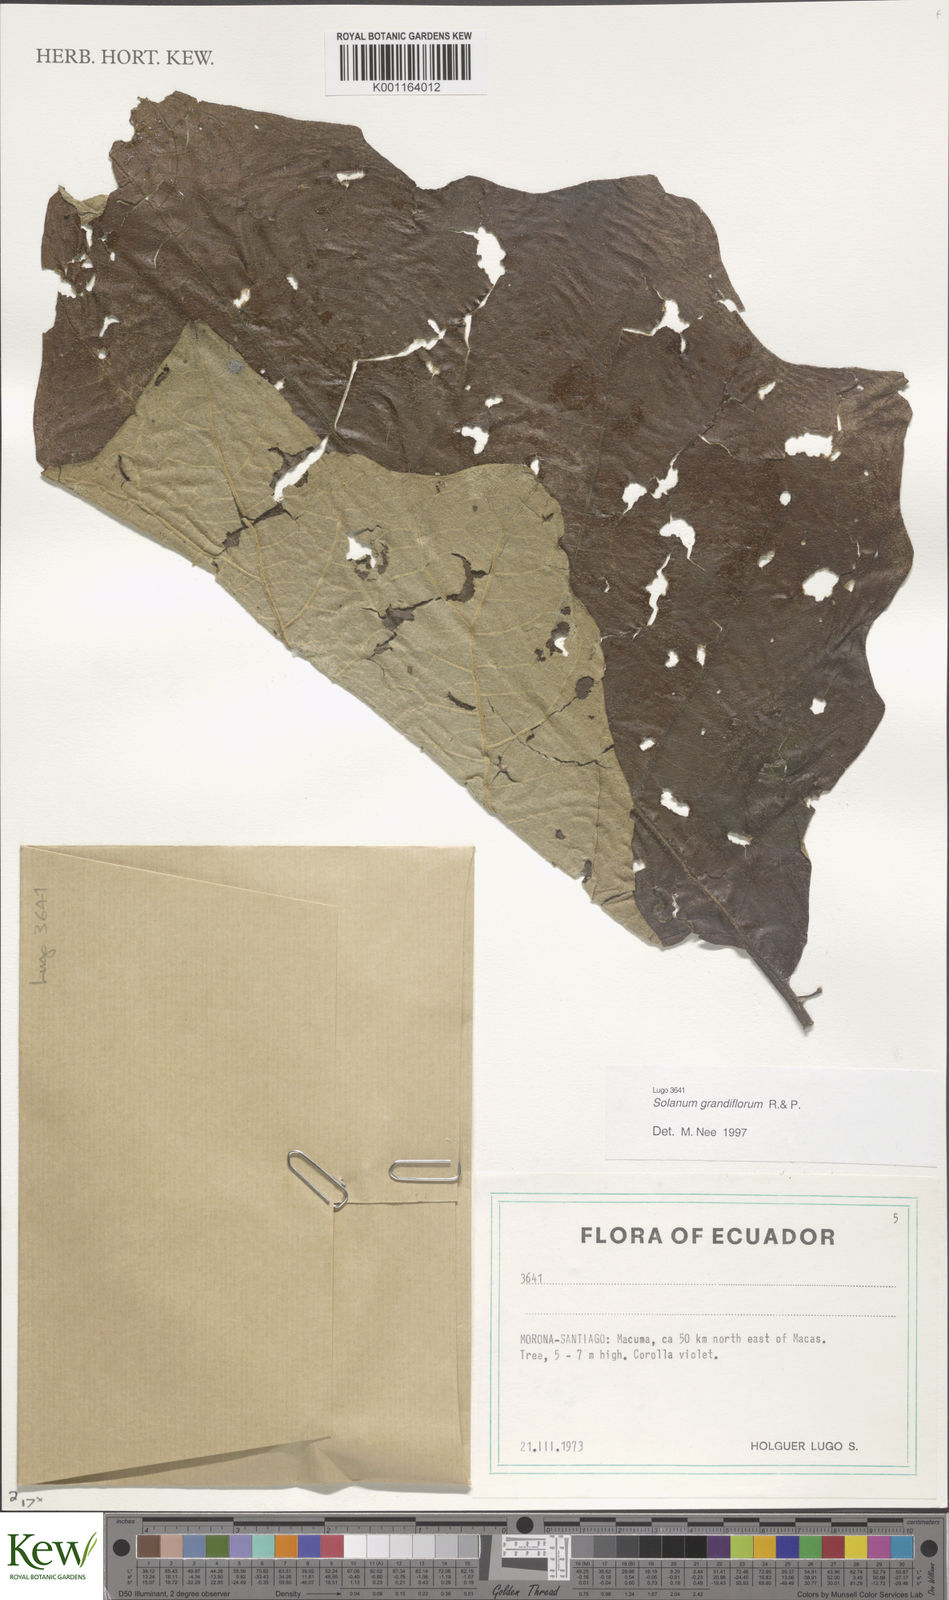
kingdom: Plantae
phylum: Tracheophyta
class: Magnoliopsida
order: Solanales
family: Solanaceae
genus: Solanum
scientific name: Solanum grandiflorum
